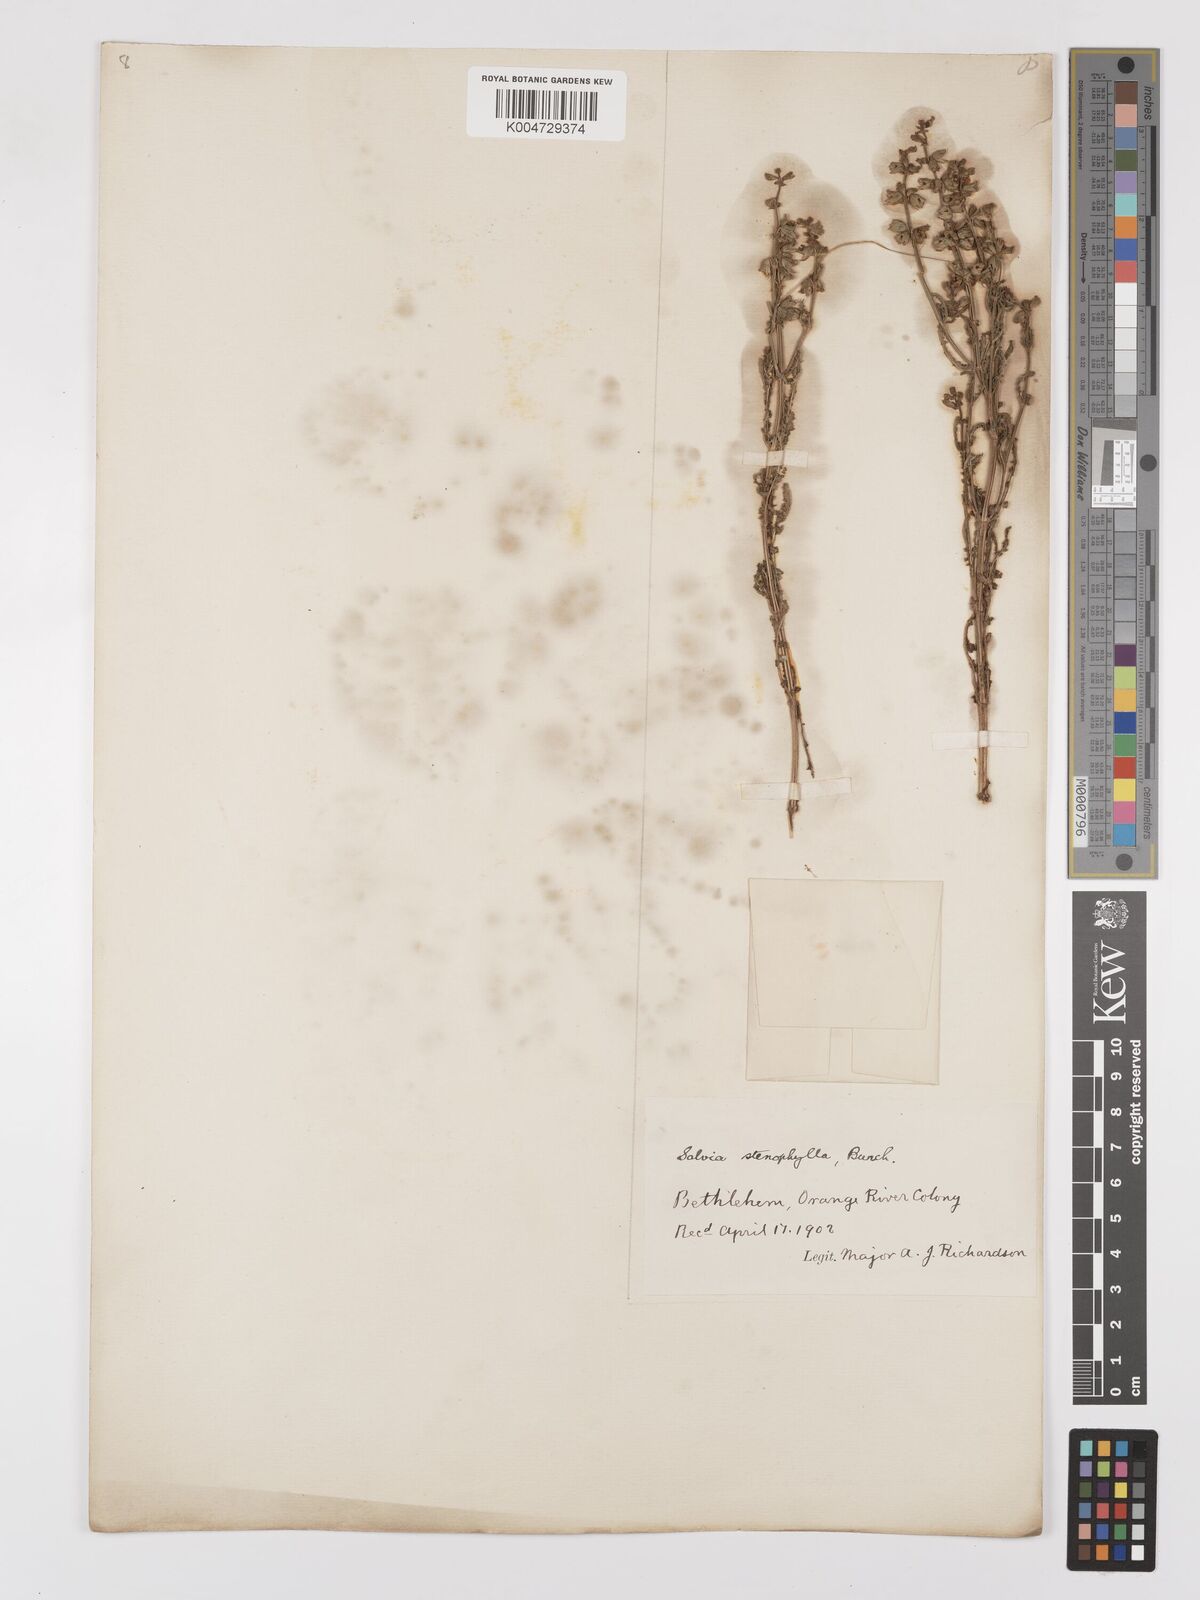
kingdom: Plantae
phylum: Tracheophyta
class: Magnoliopsida
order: Lamiales
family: Lamiaceae
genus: Salvia
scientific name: Salvia stenophylla
